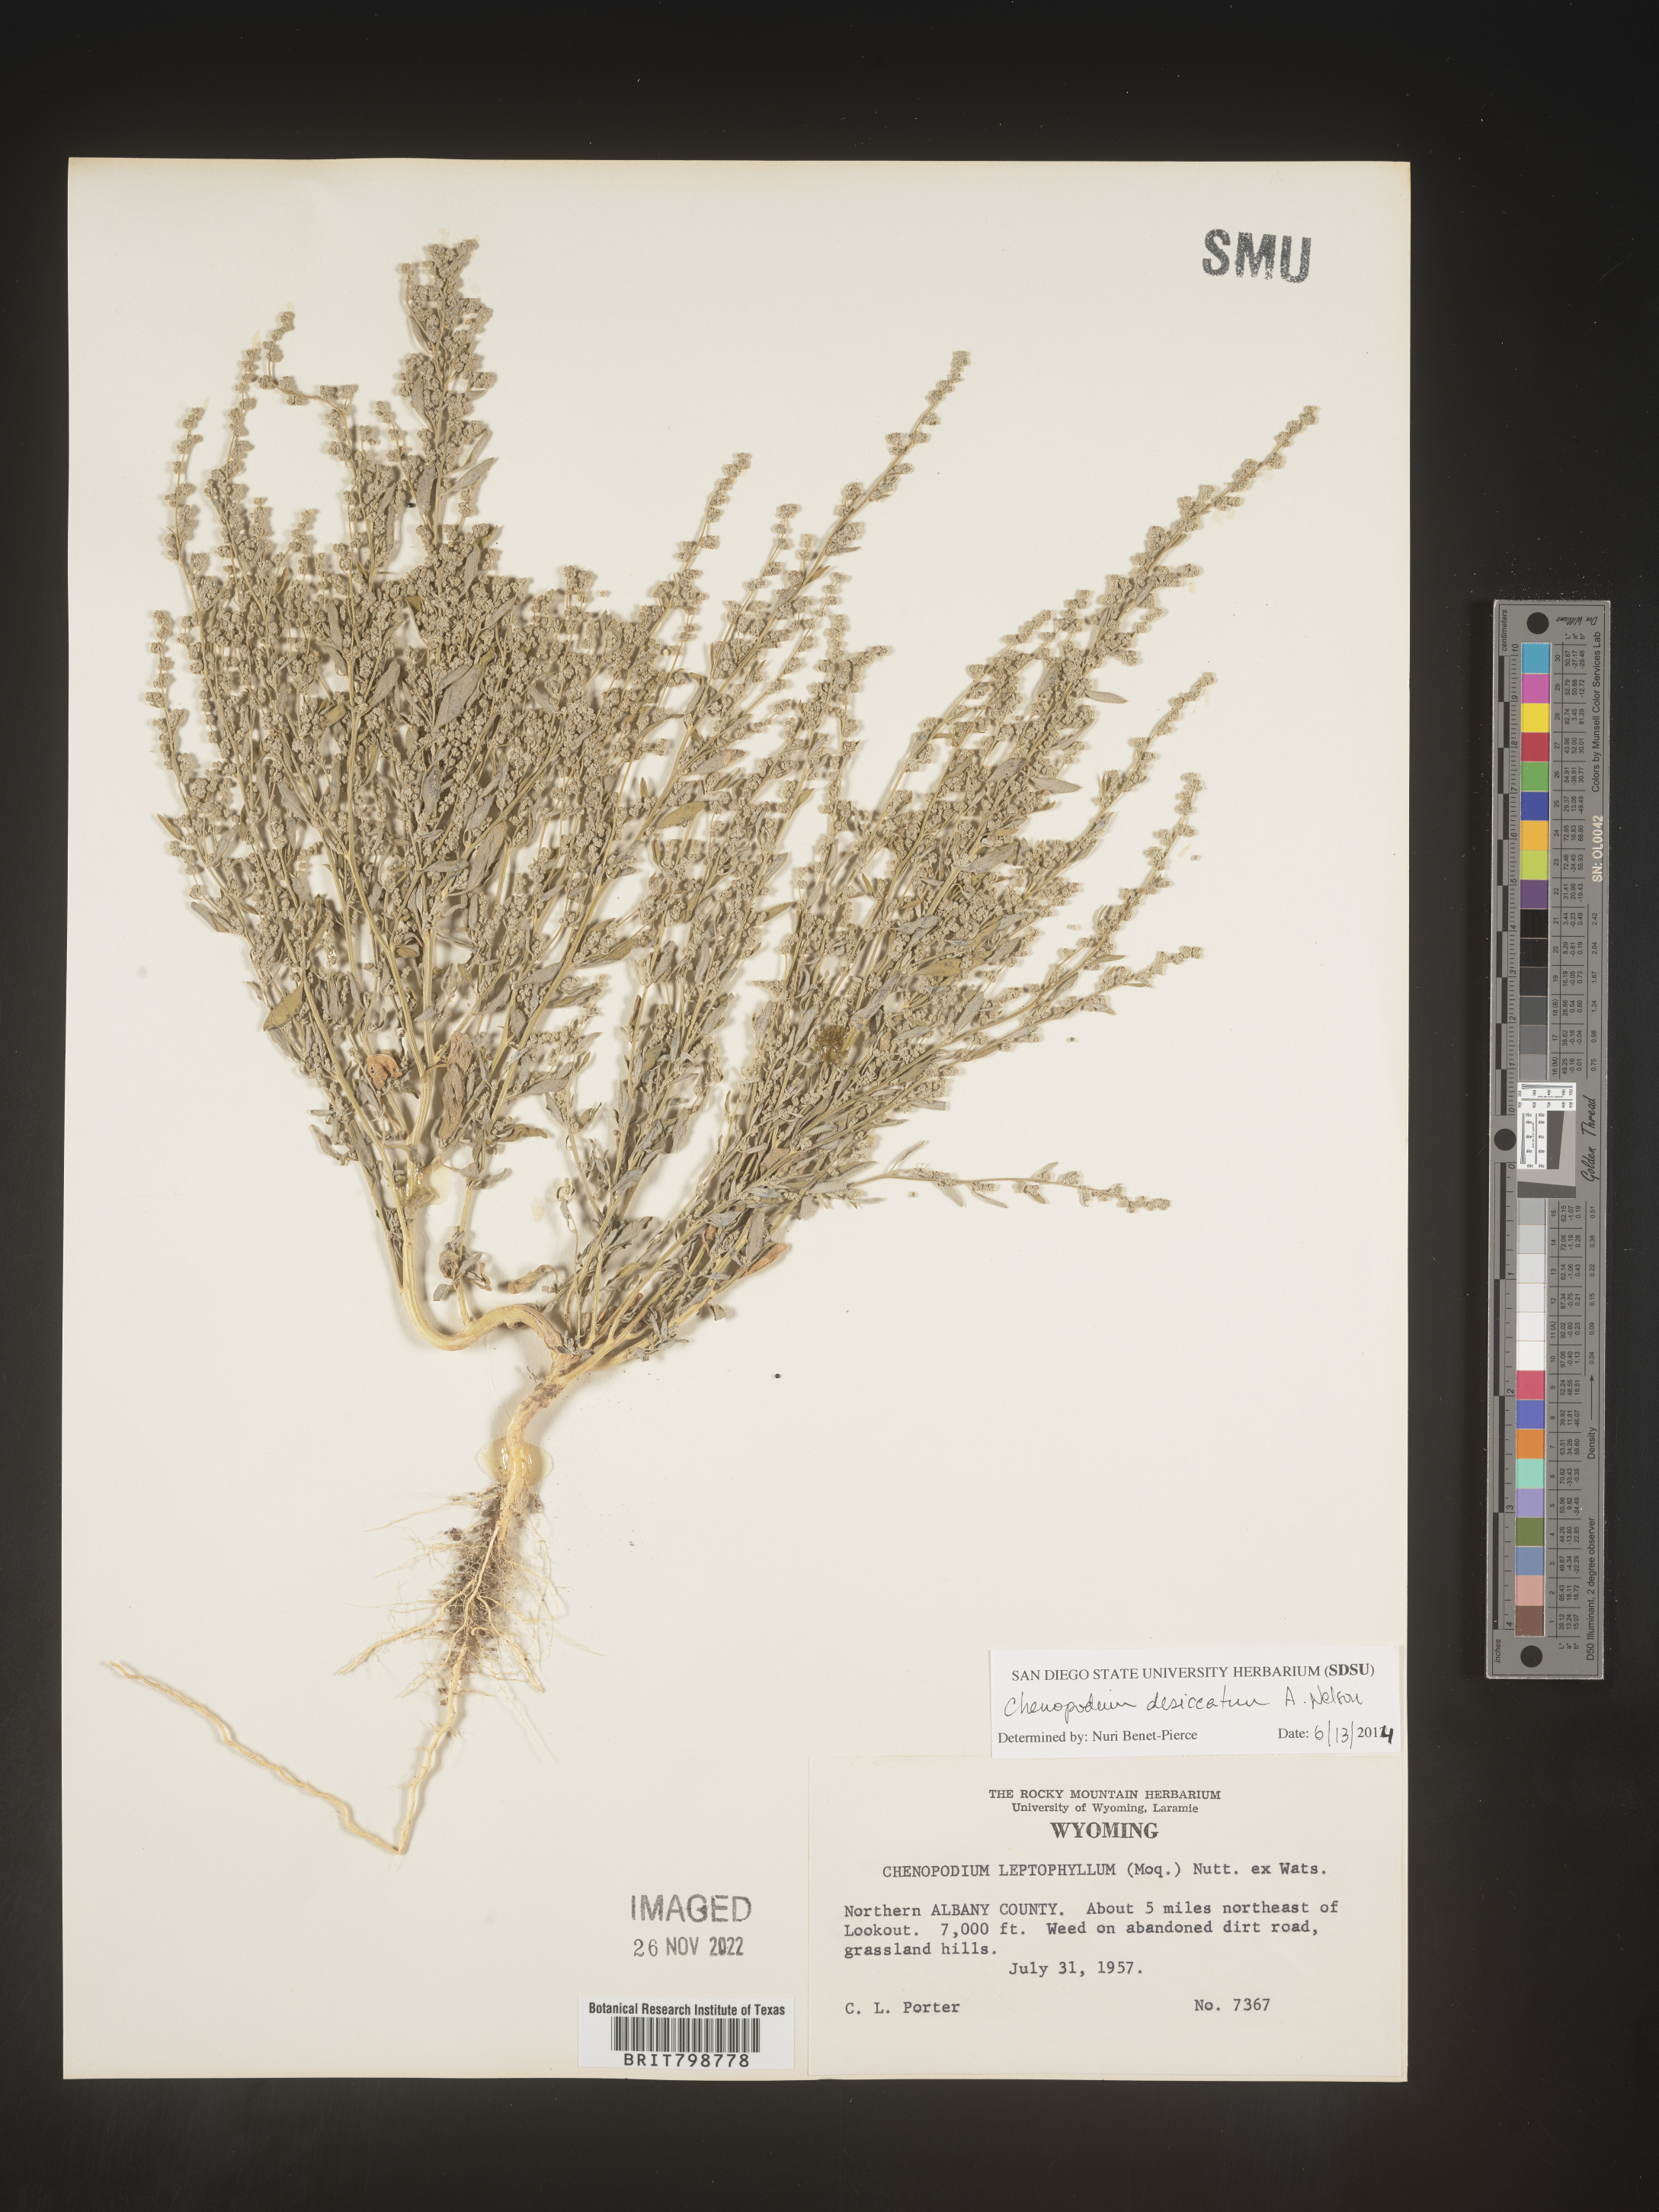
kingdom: Plantae
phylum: Tracheophyta
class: Magnoliopsida
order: Caryophyllales
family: Amaranthaceae
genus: Chenopodium
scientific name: Chenopodium desiccatum
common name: Slimleaf goosefoot
